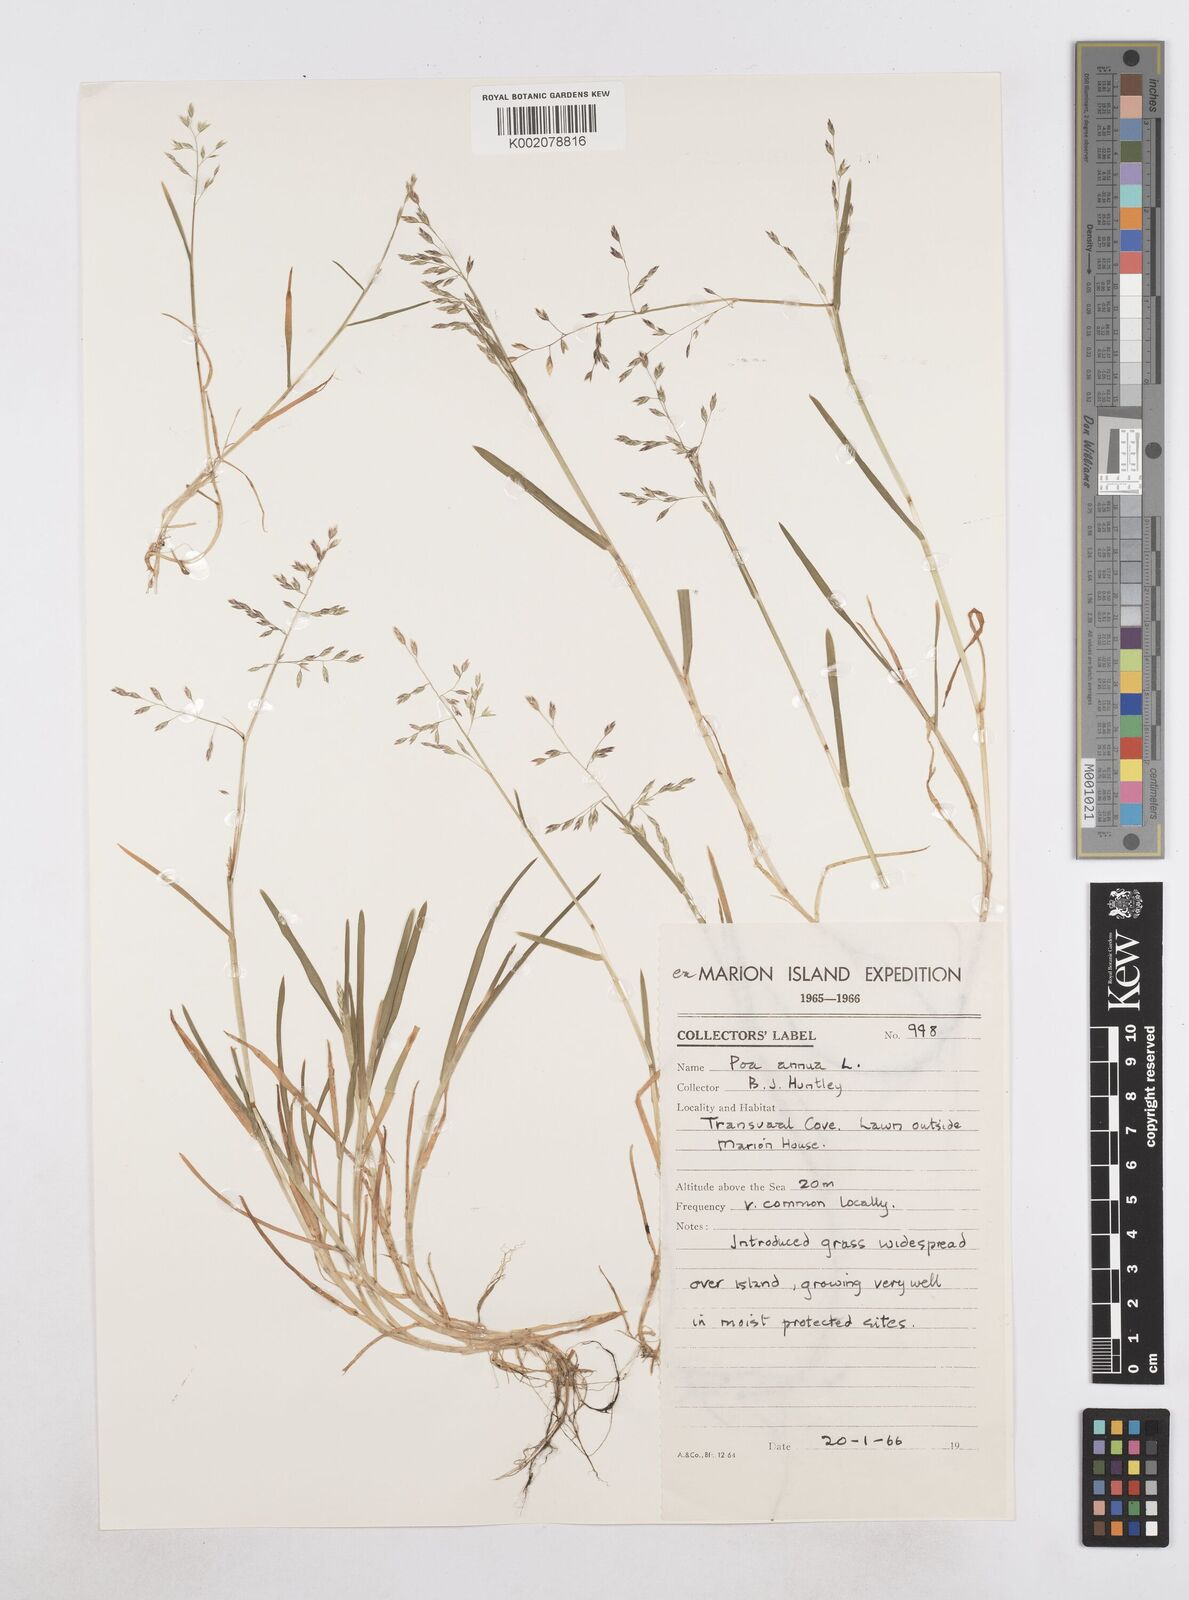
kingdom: Plantae
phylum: Tracheophyta
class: Liliopsida
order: Poales
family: Poaceae
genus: Poa
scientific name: Poa annua
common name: Annual bluegrass
